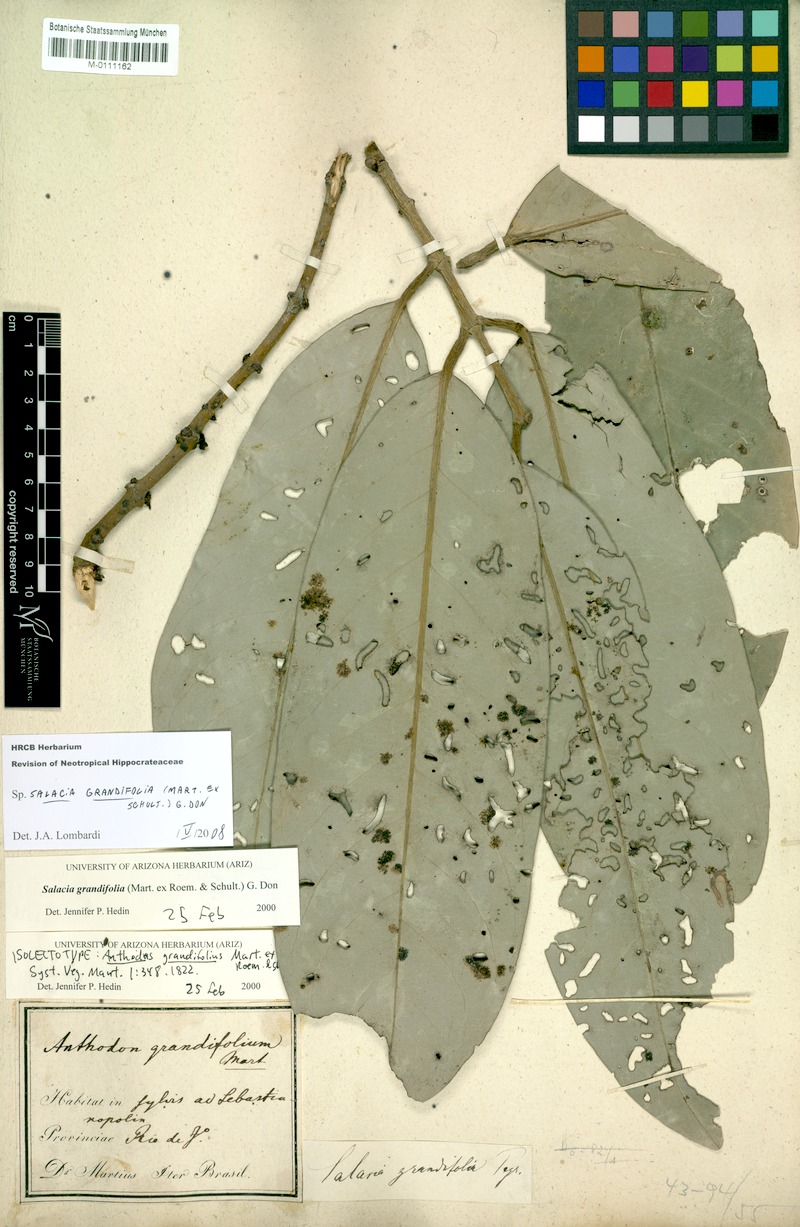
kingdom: Plantae
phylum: Tracheophyta
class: Magnoliopsida
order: Celastrales
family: Celastraceae
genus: Salacia
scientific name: Salacia grandifolia
